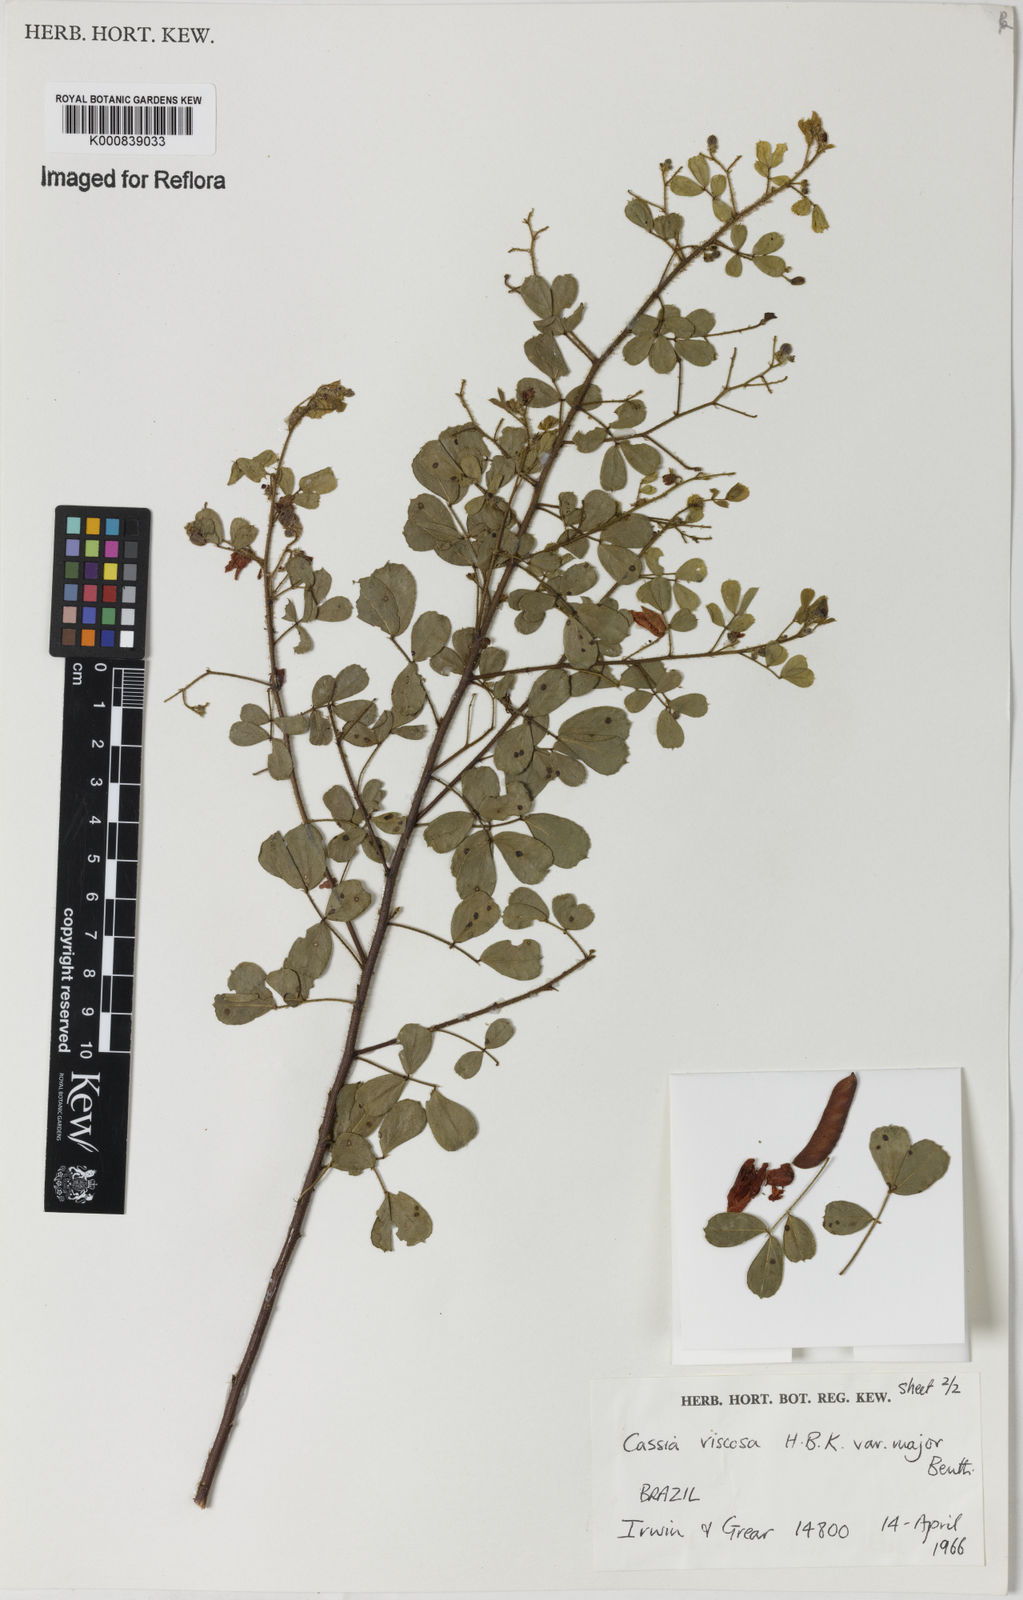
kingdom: Plantae
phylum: Tracheophyta
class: Magnoliopsida
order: Fabales
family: Fabaceae
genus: Chamaecrista
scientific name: Chamaecrista viscosa
